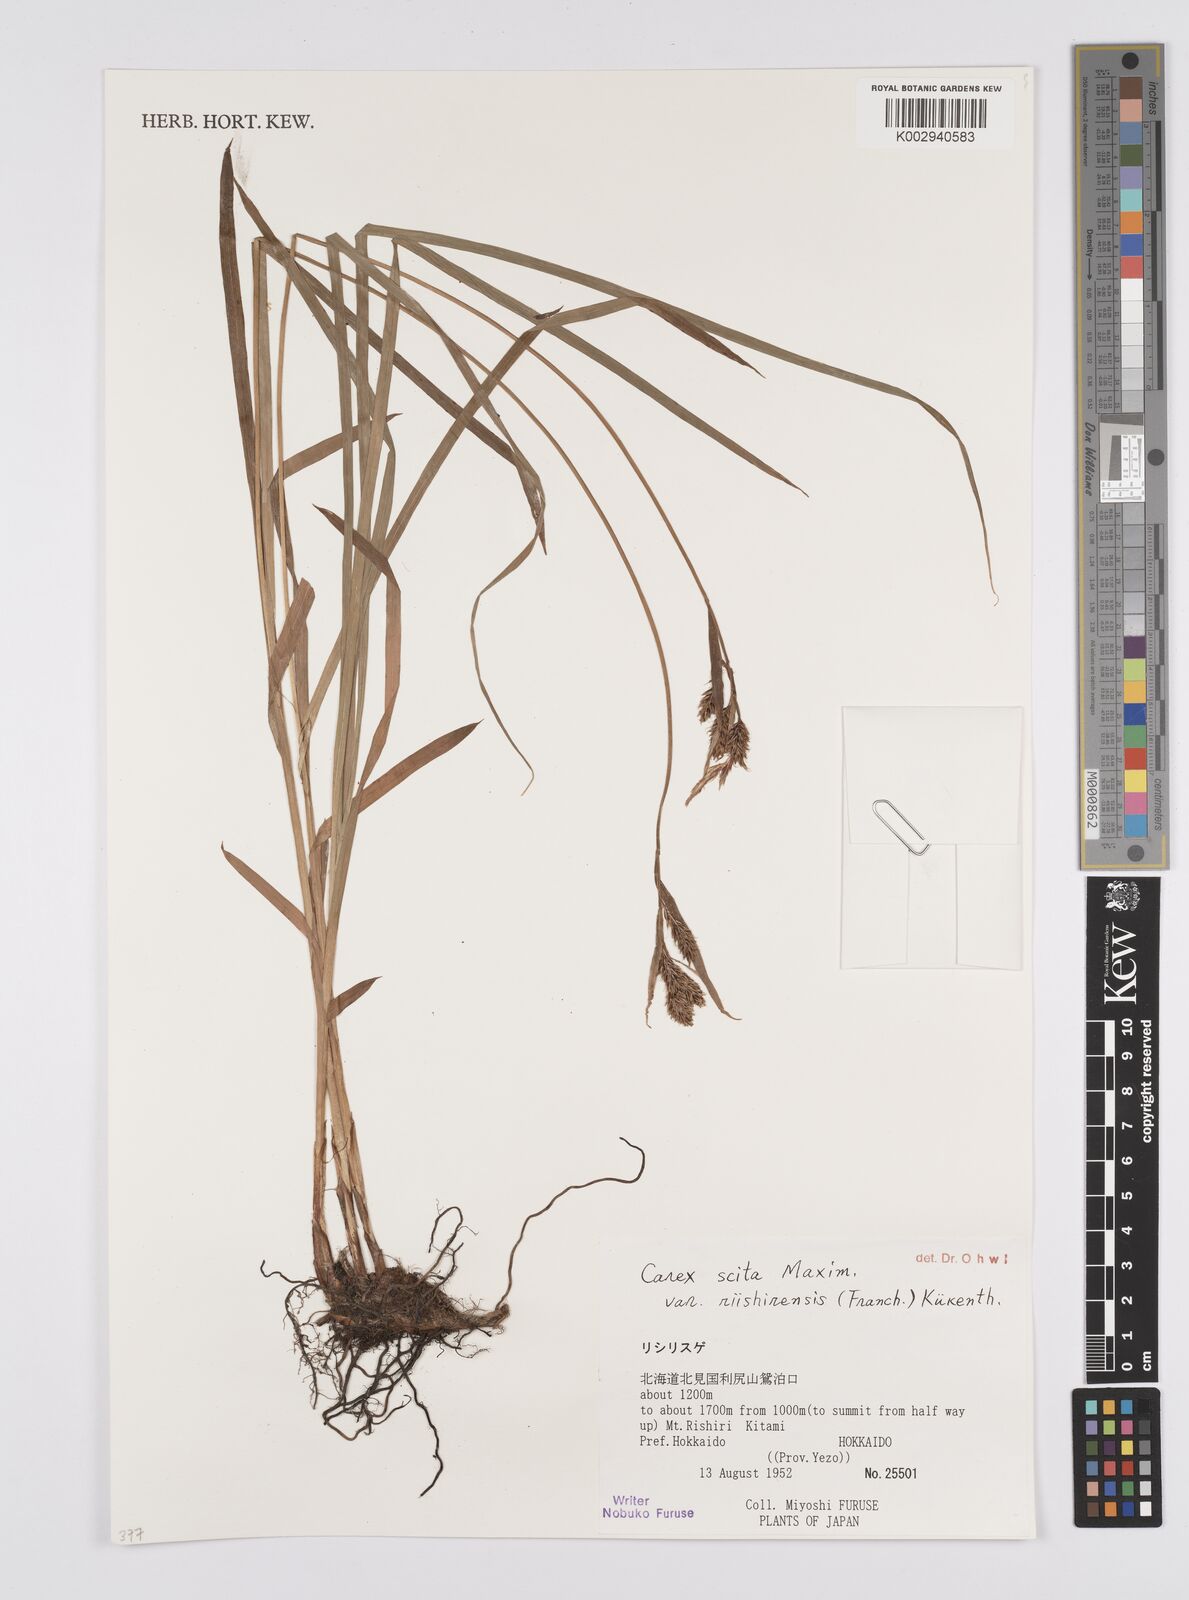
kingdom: Plantae
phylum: Tracheophyta
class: Liliopsida
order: Poales
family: Cyperaceae
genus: Carex
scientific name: Carex scita
